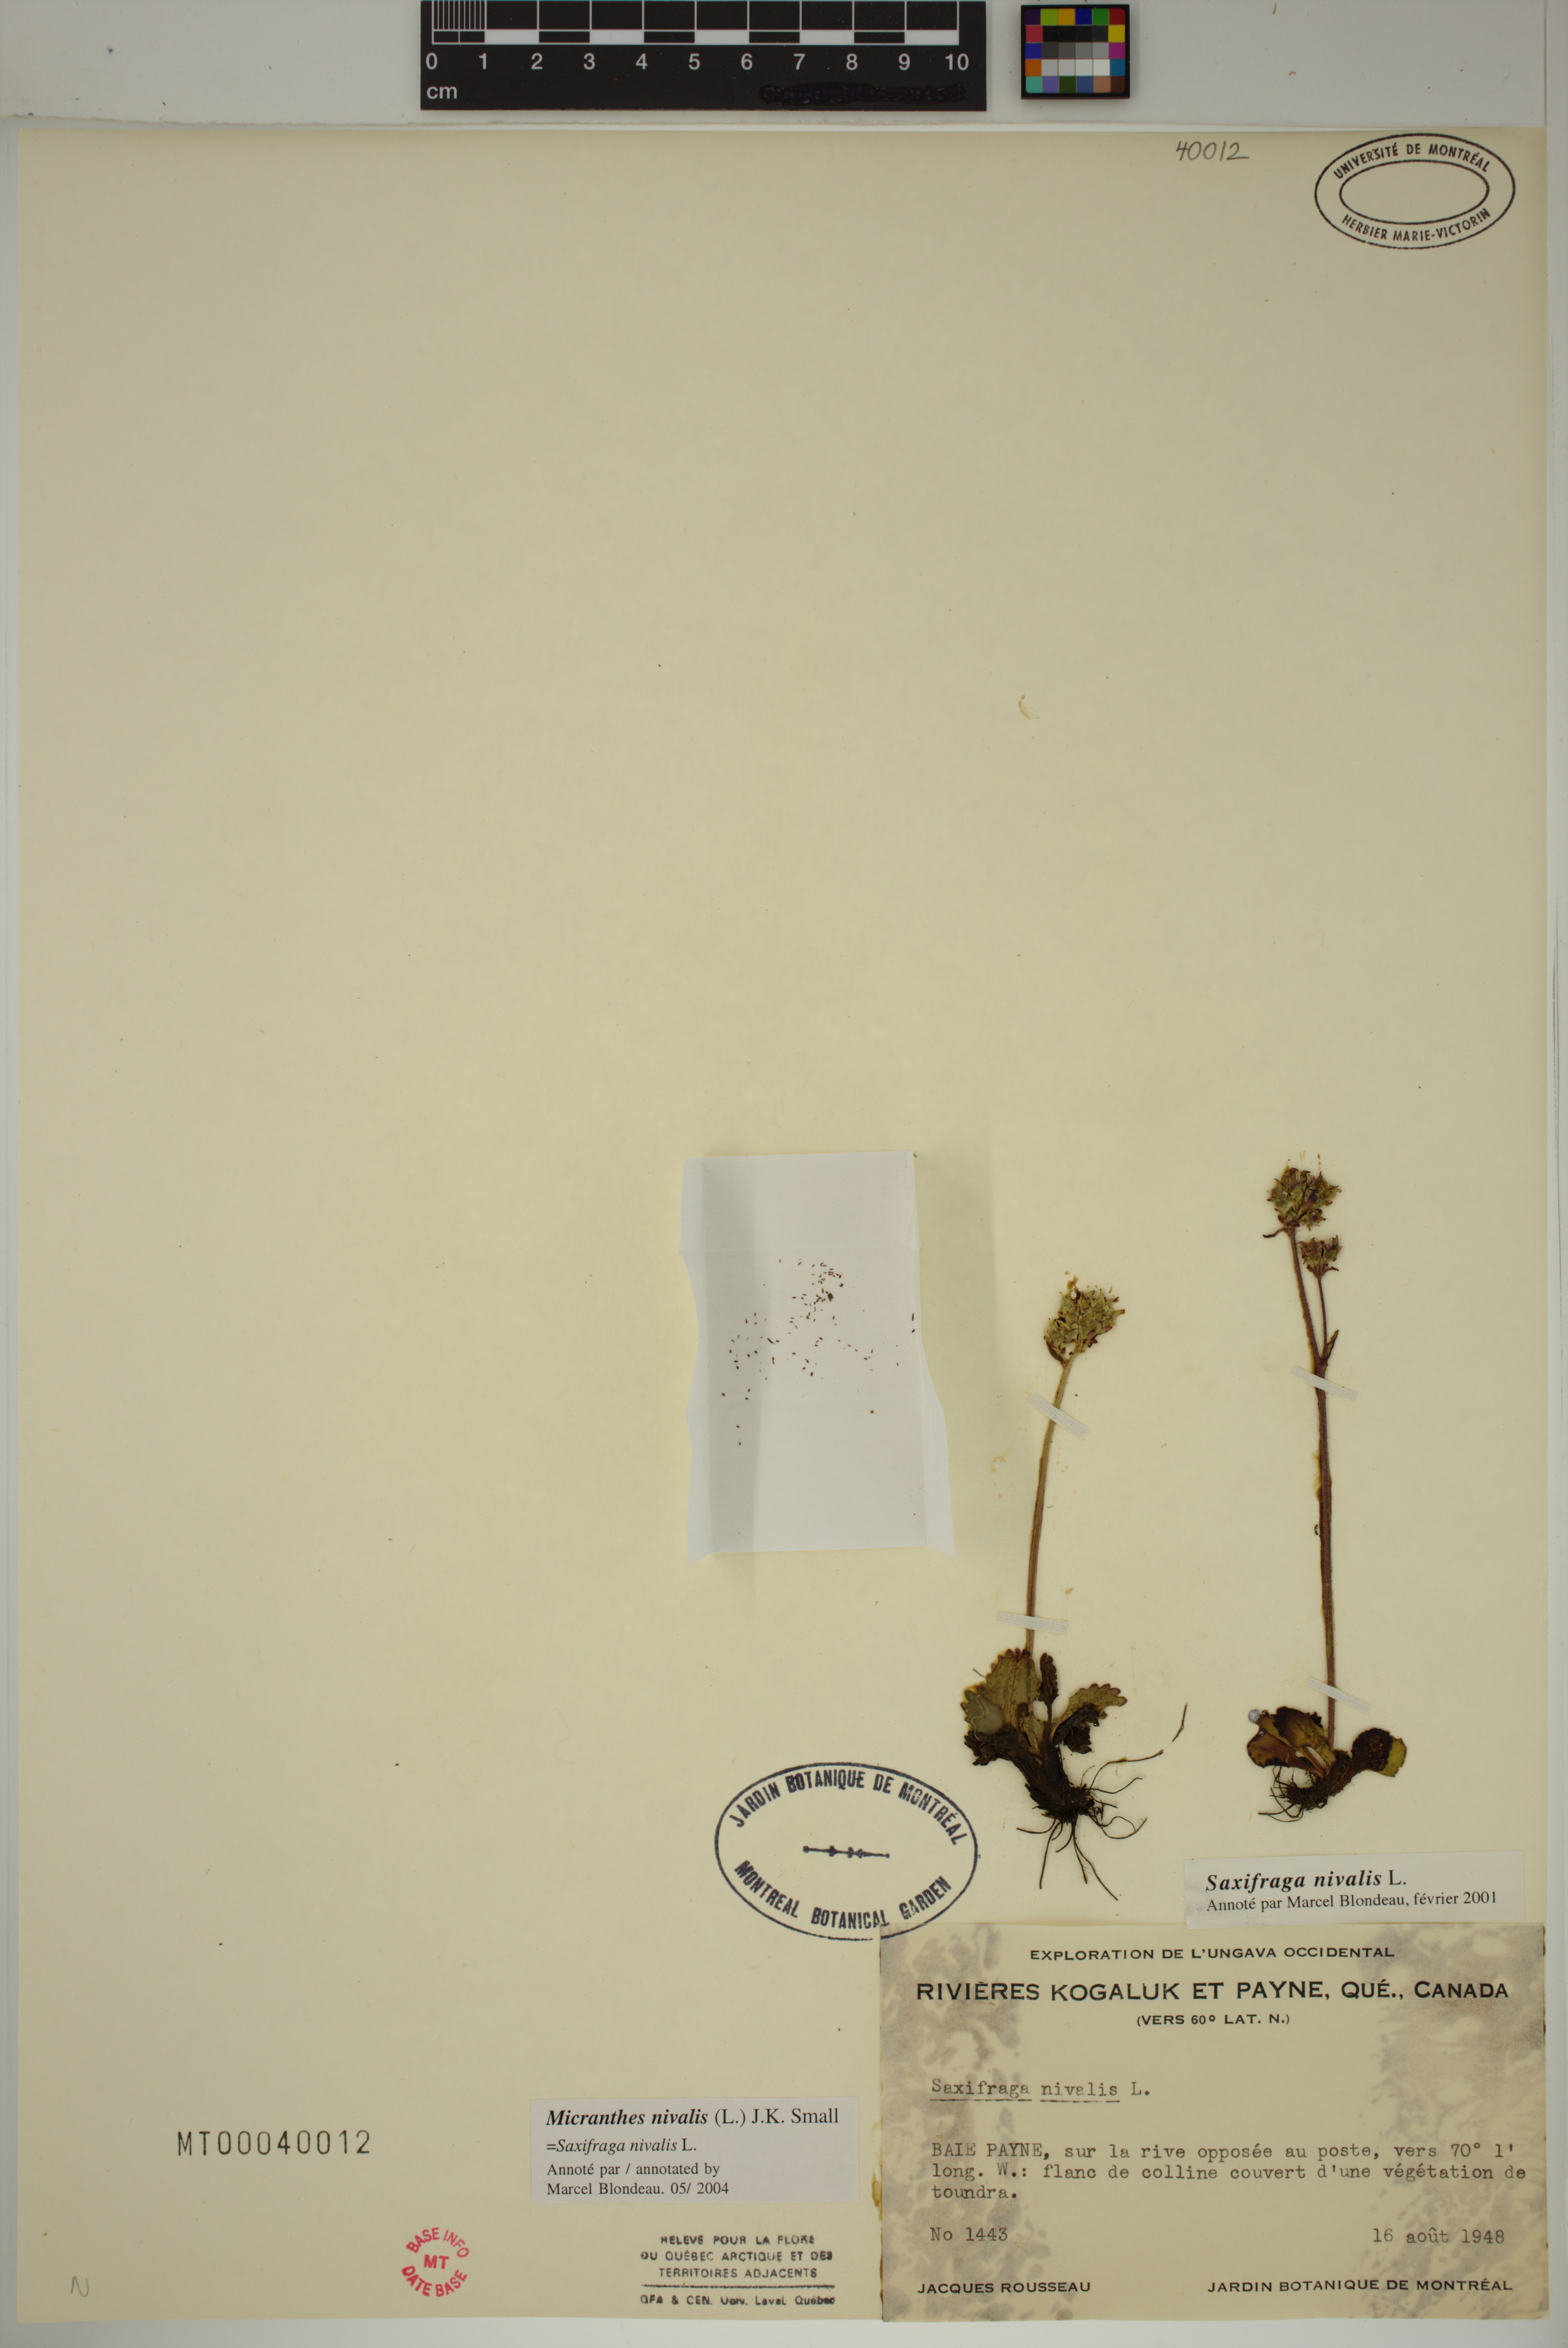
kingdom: Plantae
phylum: Tracheophyta
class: Magnoliopsida
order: Saxifragales
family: Saxifragaceae
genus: Micranthes
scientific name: Micranthes nivalis
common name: Alpine saxifrage
